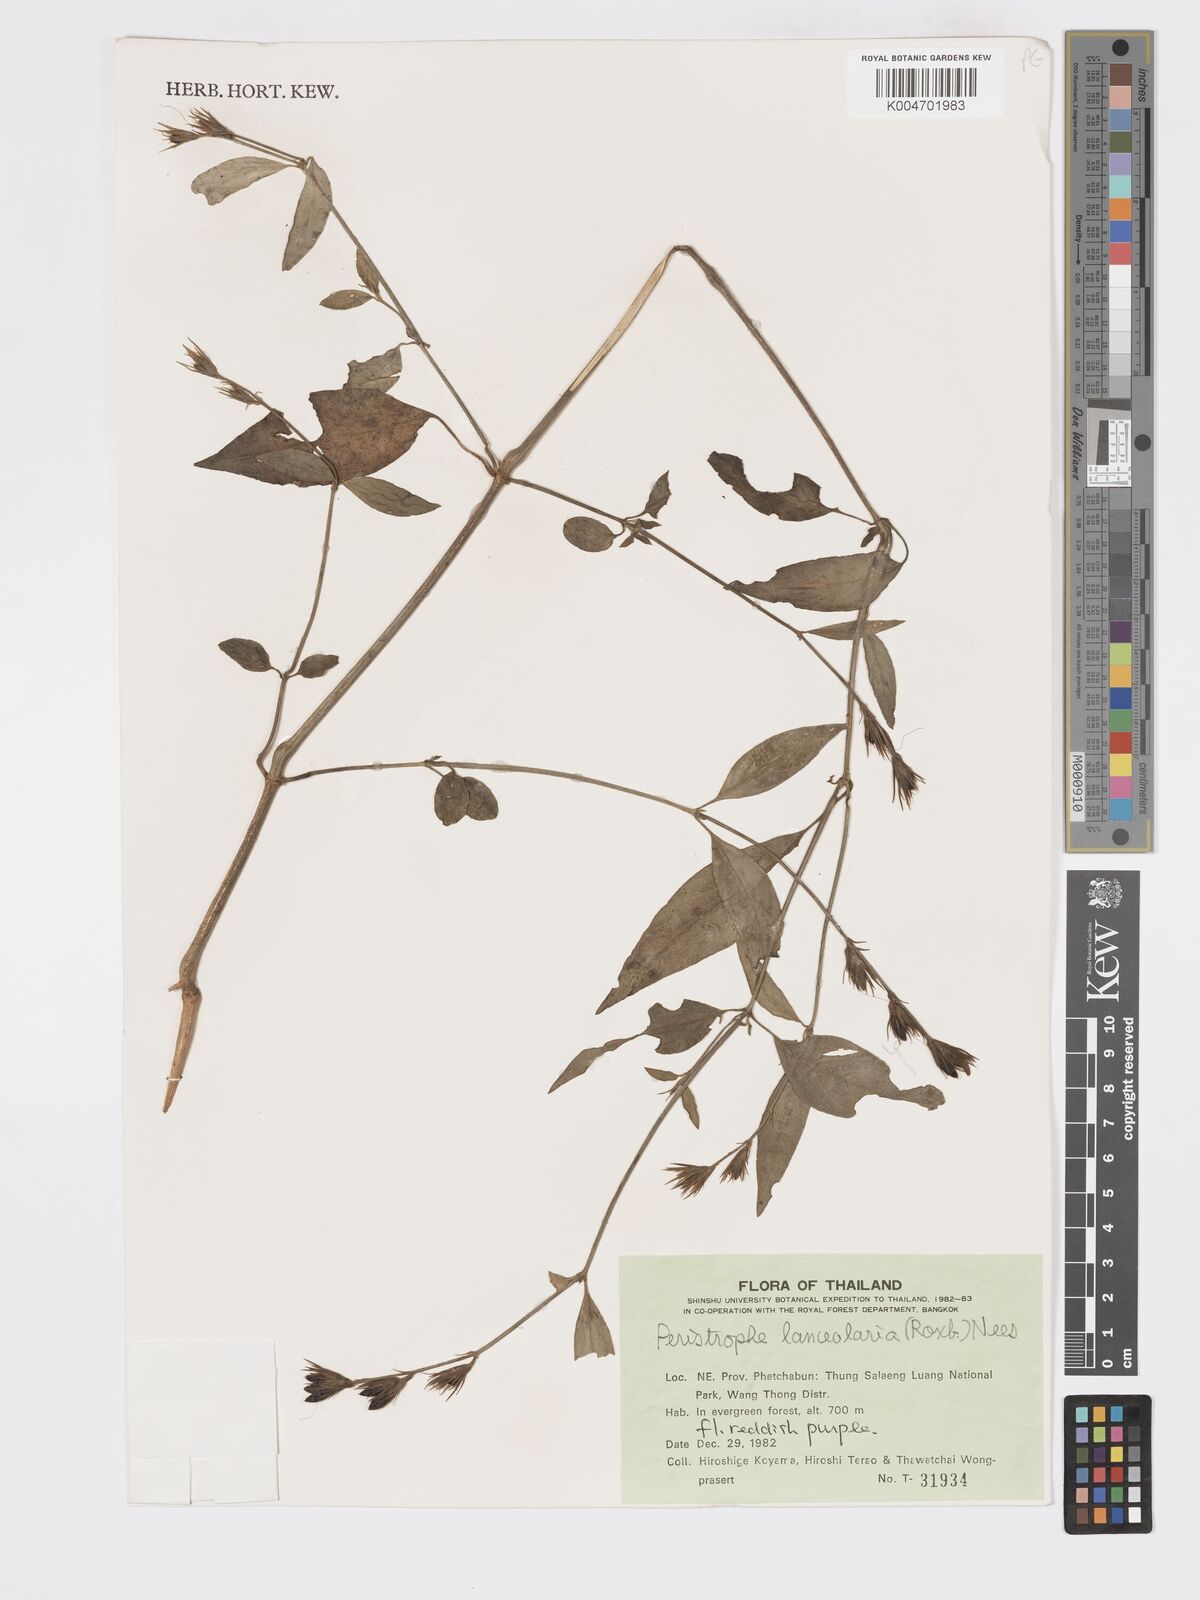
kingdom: Plantae
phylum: Tracheophyta
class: Magnoliopsida
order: Lamiales
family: Acanthaceae
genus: Dicliptera
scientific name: Dicliptera lanceolaria
